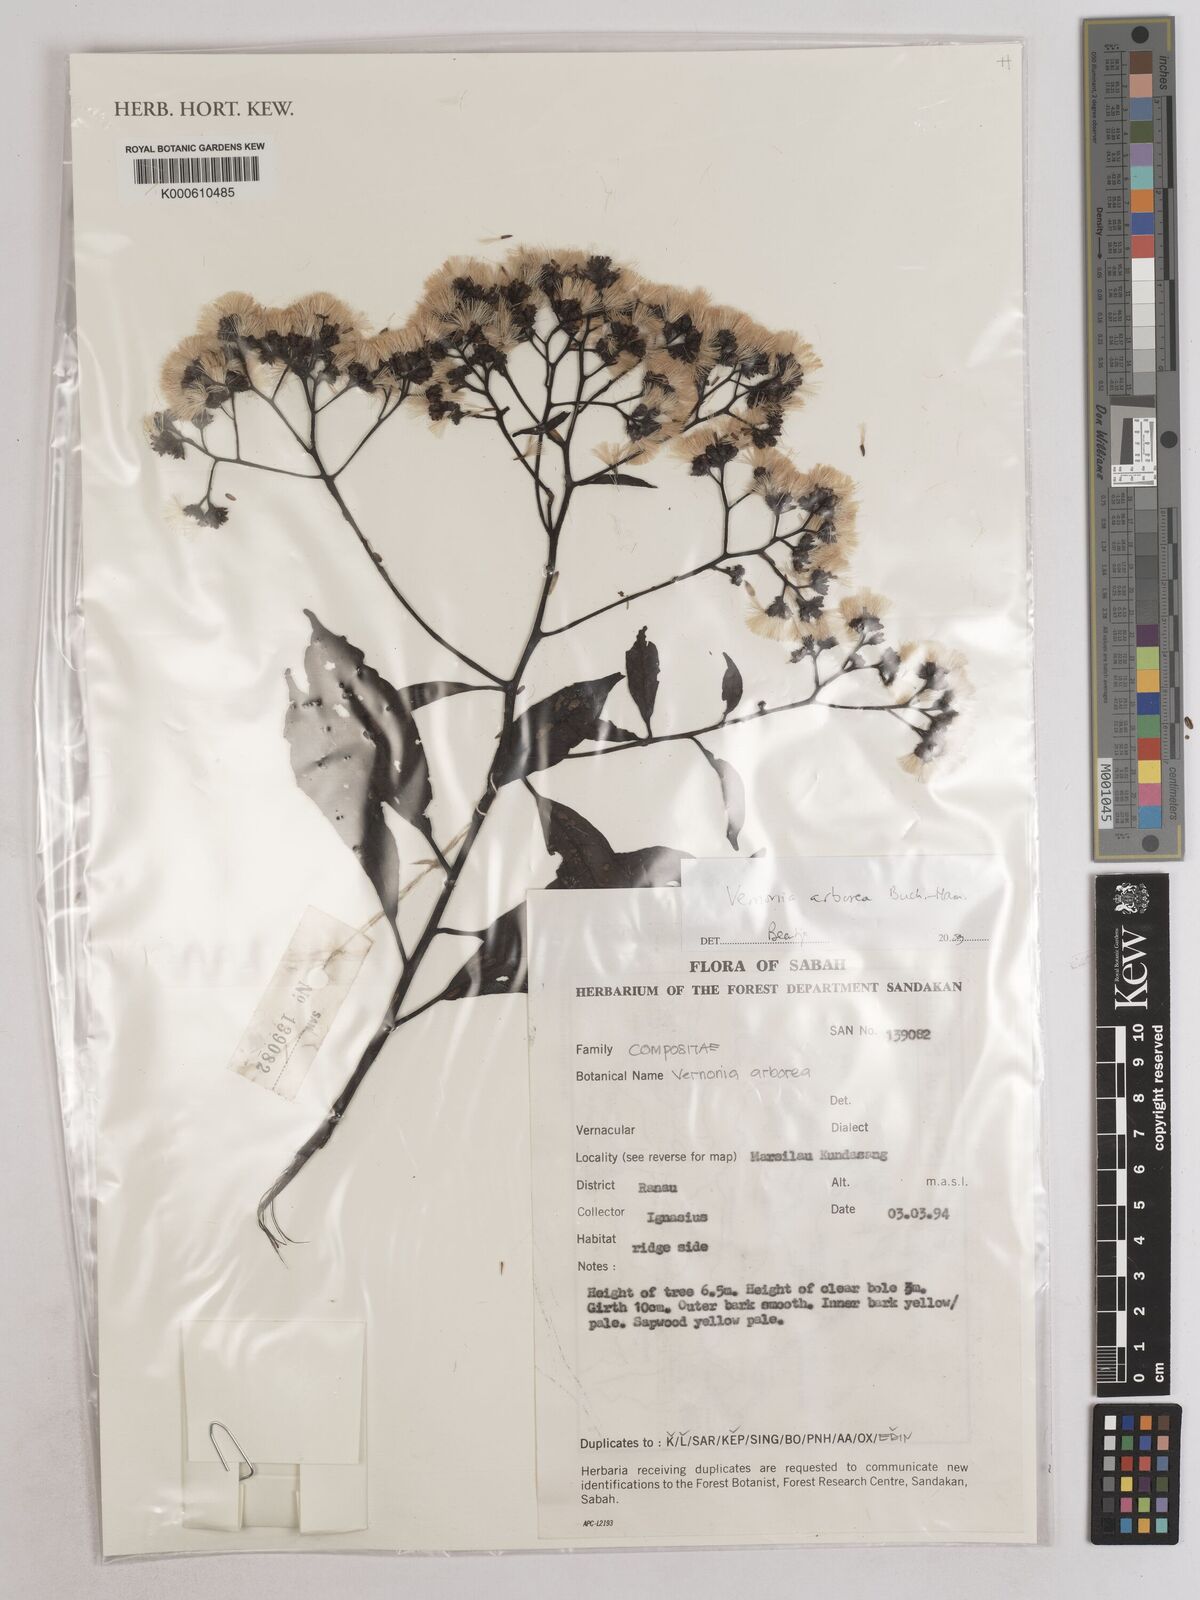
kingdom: Plantae
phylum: Tracheophyta
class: Magnoliopsida
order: Asterales
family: Asteraceae
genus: Strobocalyx
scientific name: Strobocalyx arborea
